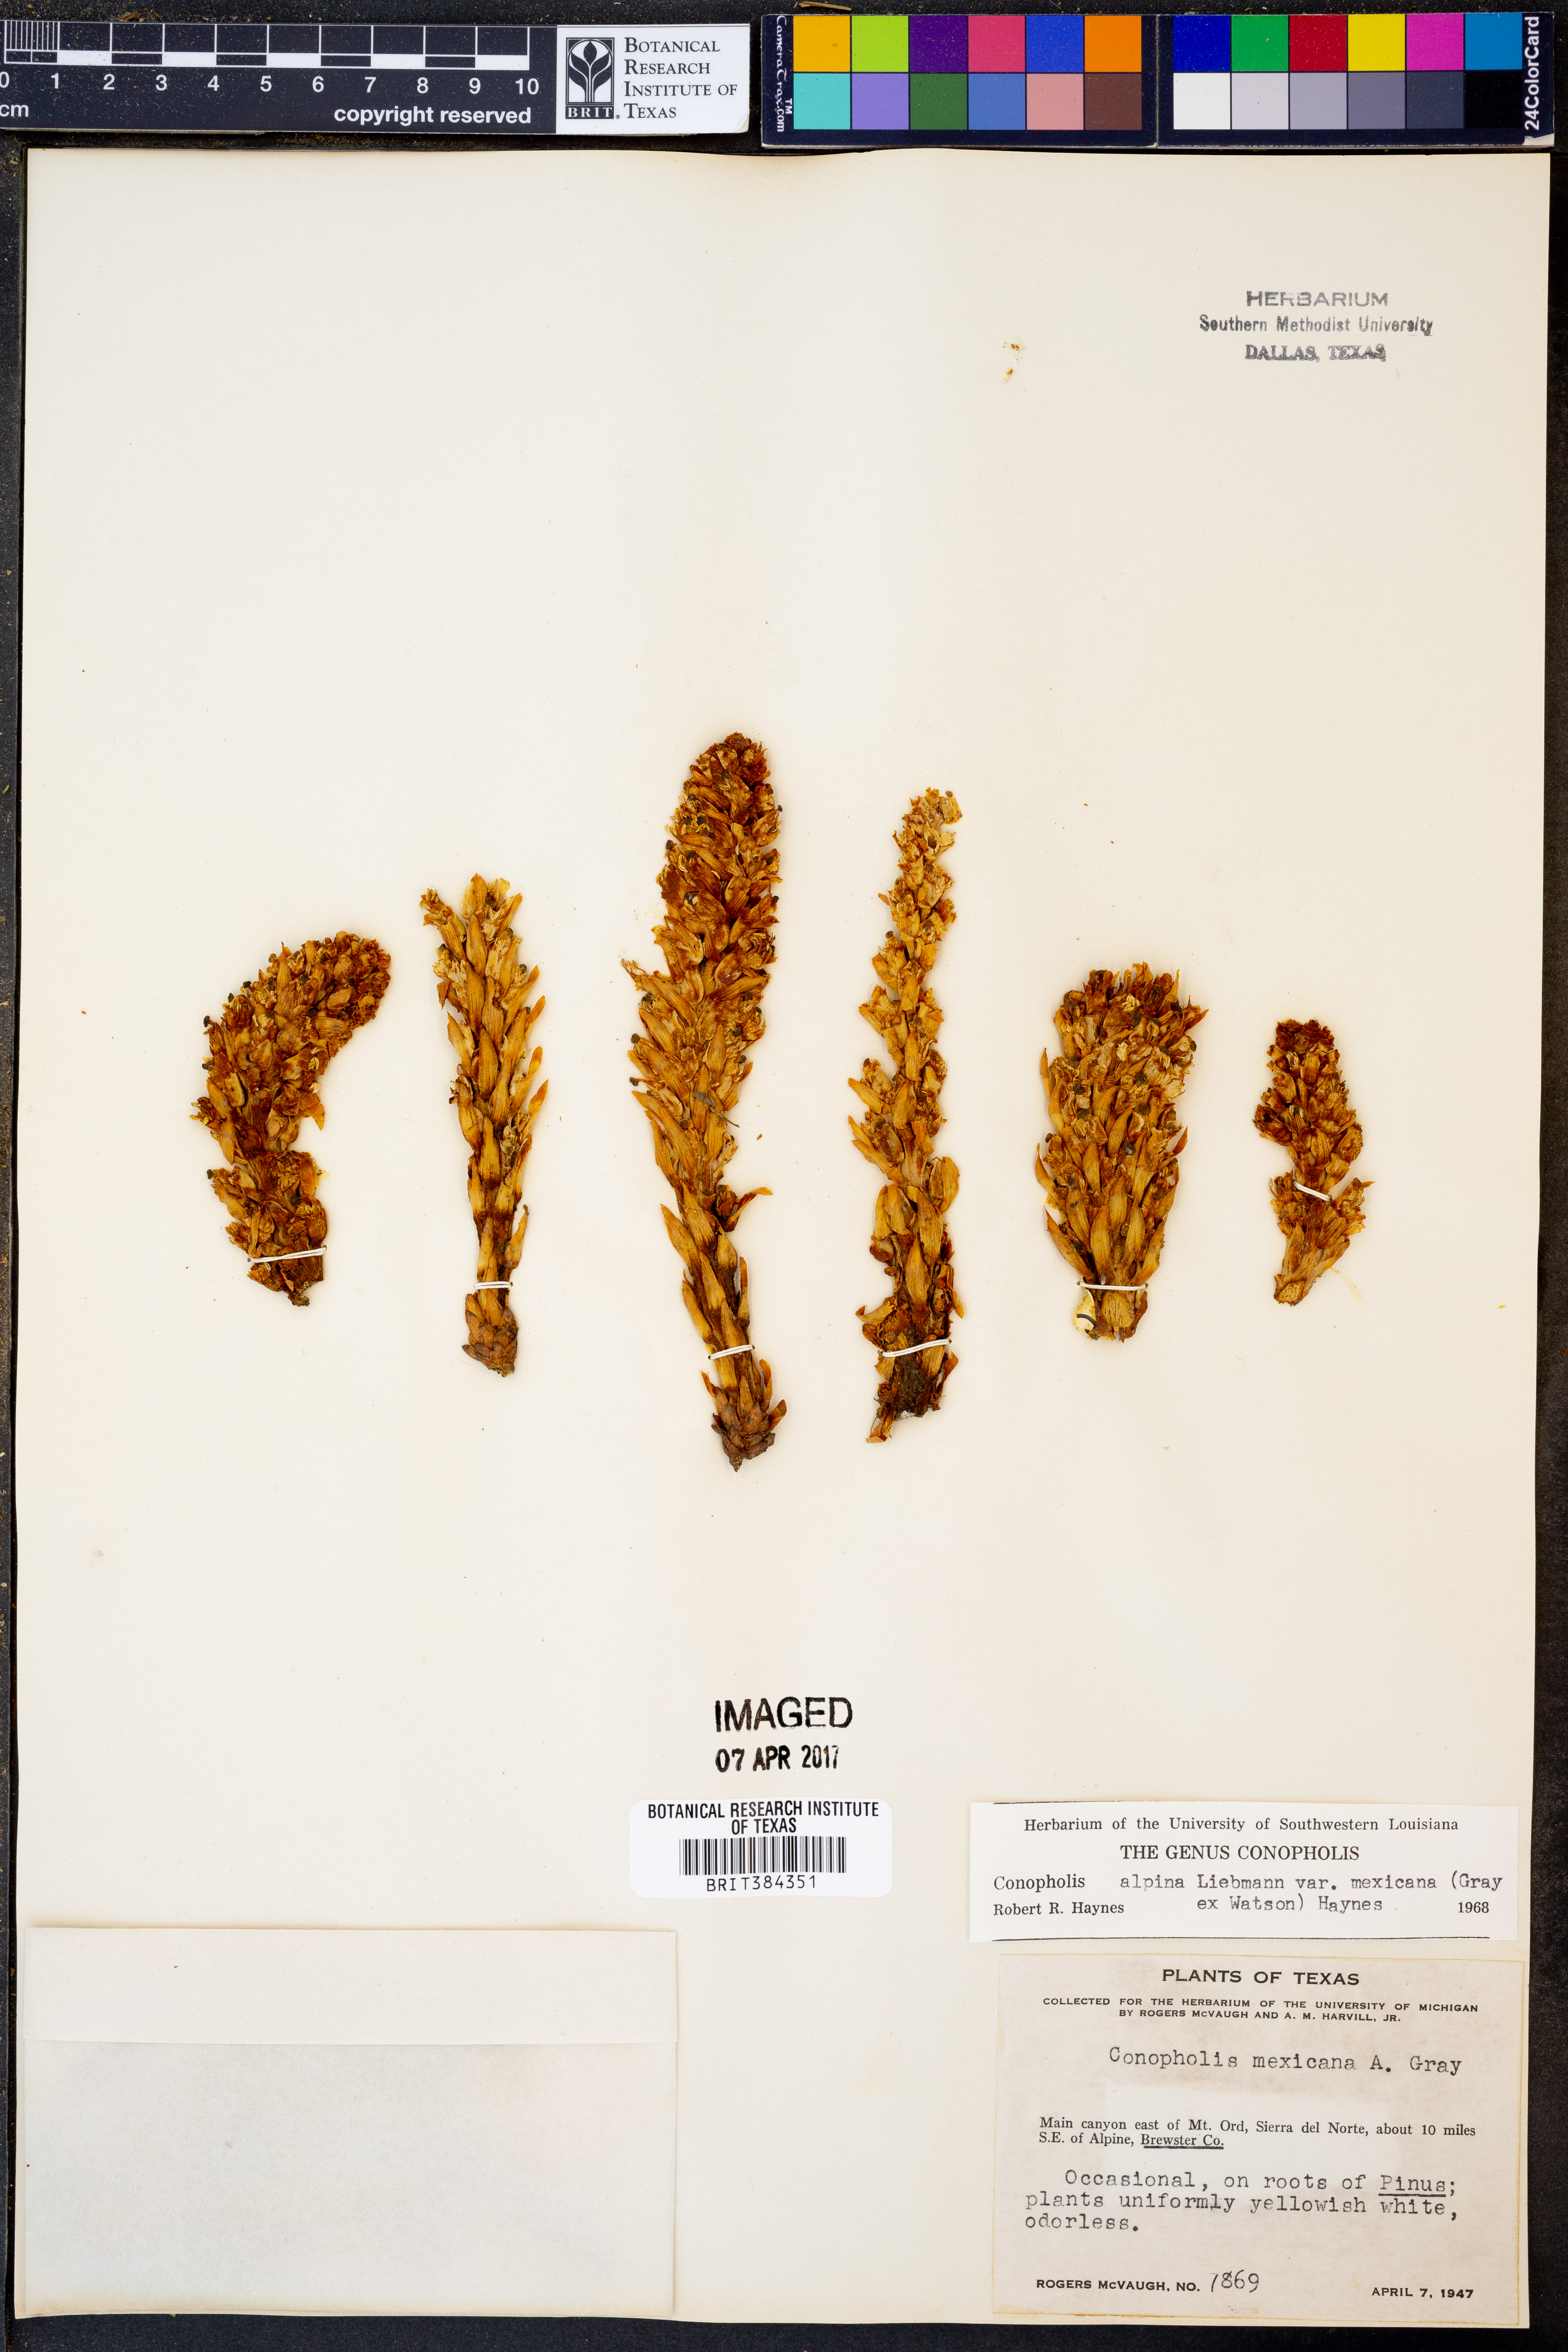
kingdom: Plantae
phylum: Tracheophyta
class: Magnoliopsida
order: Lamiales
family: Orobanchaceae
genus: Conopholis
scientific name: Conopholis alpina
